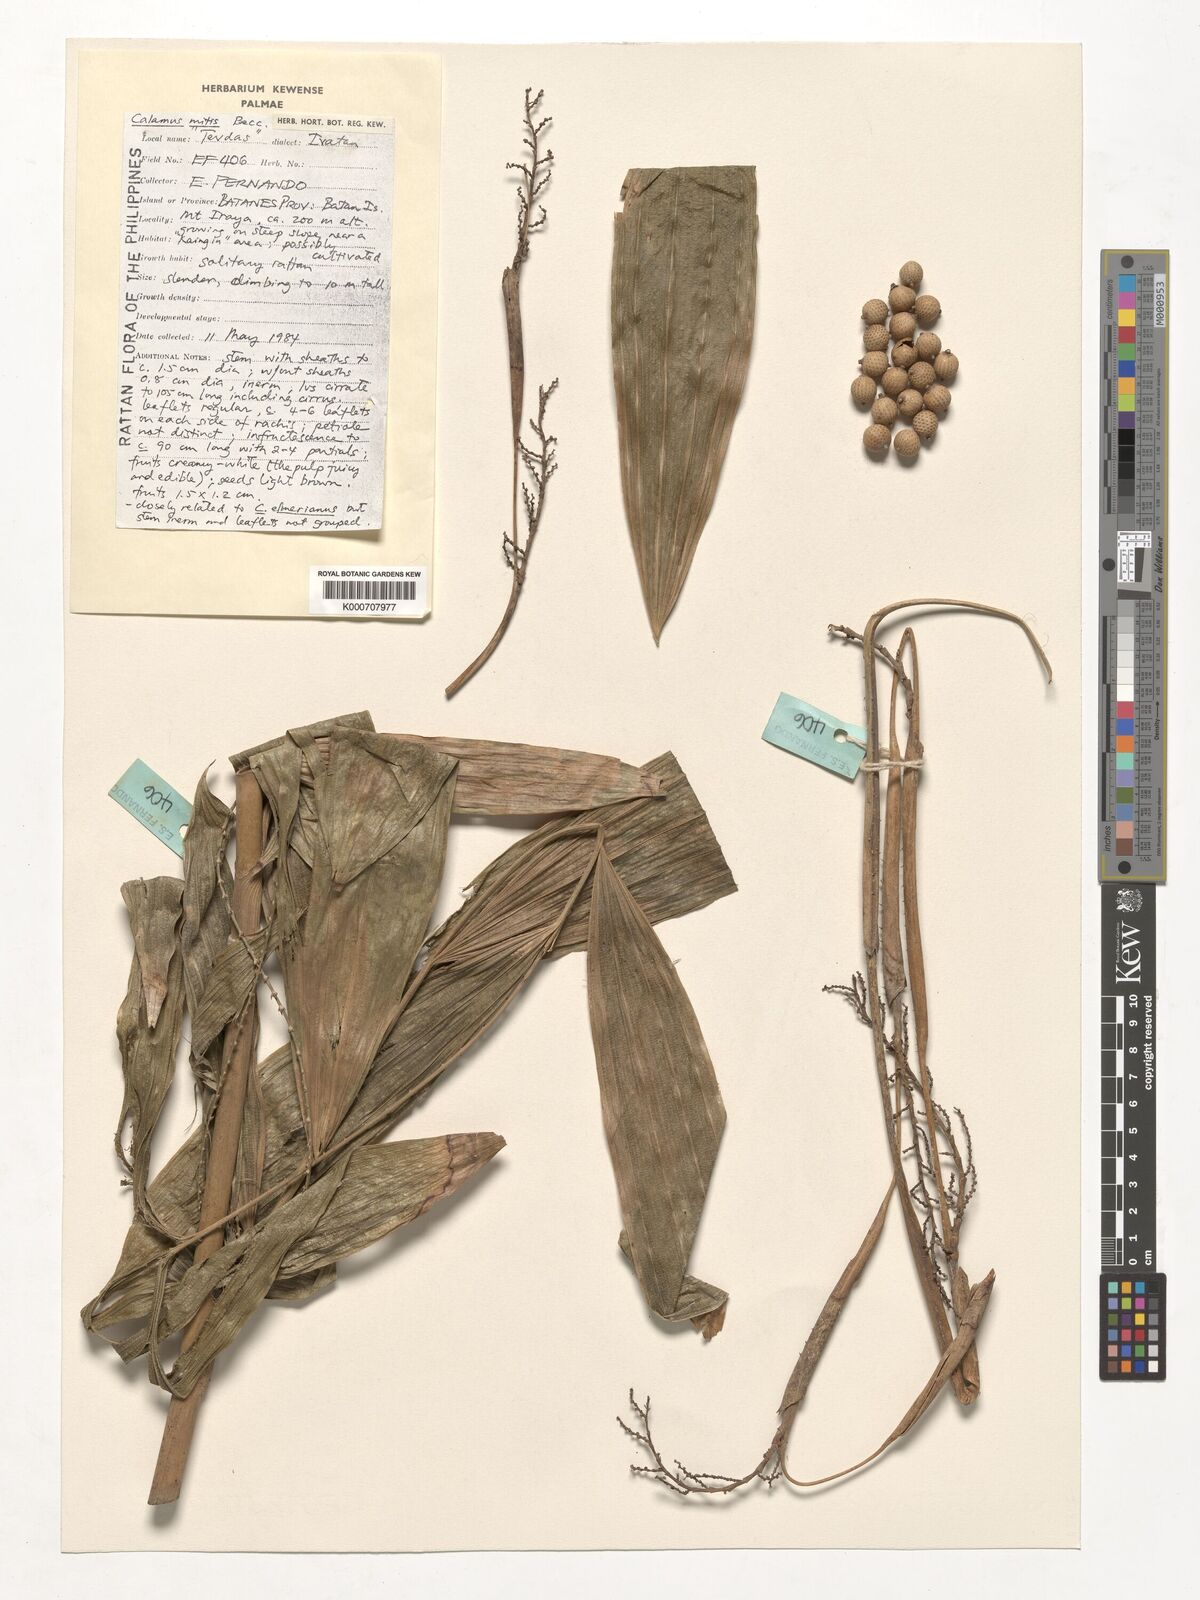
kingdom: Plantae
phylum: Tracheophyta
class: Liliopsida
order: Arecales
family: Arecaceae
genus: Calamus
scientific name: Calamus mitis
